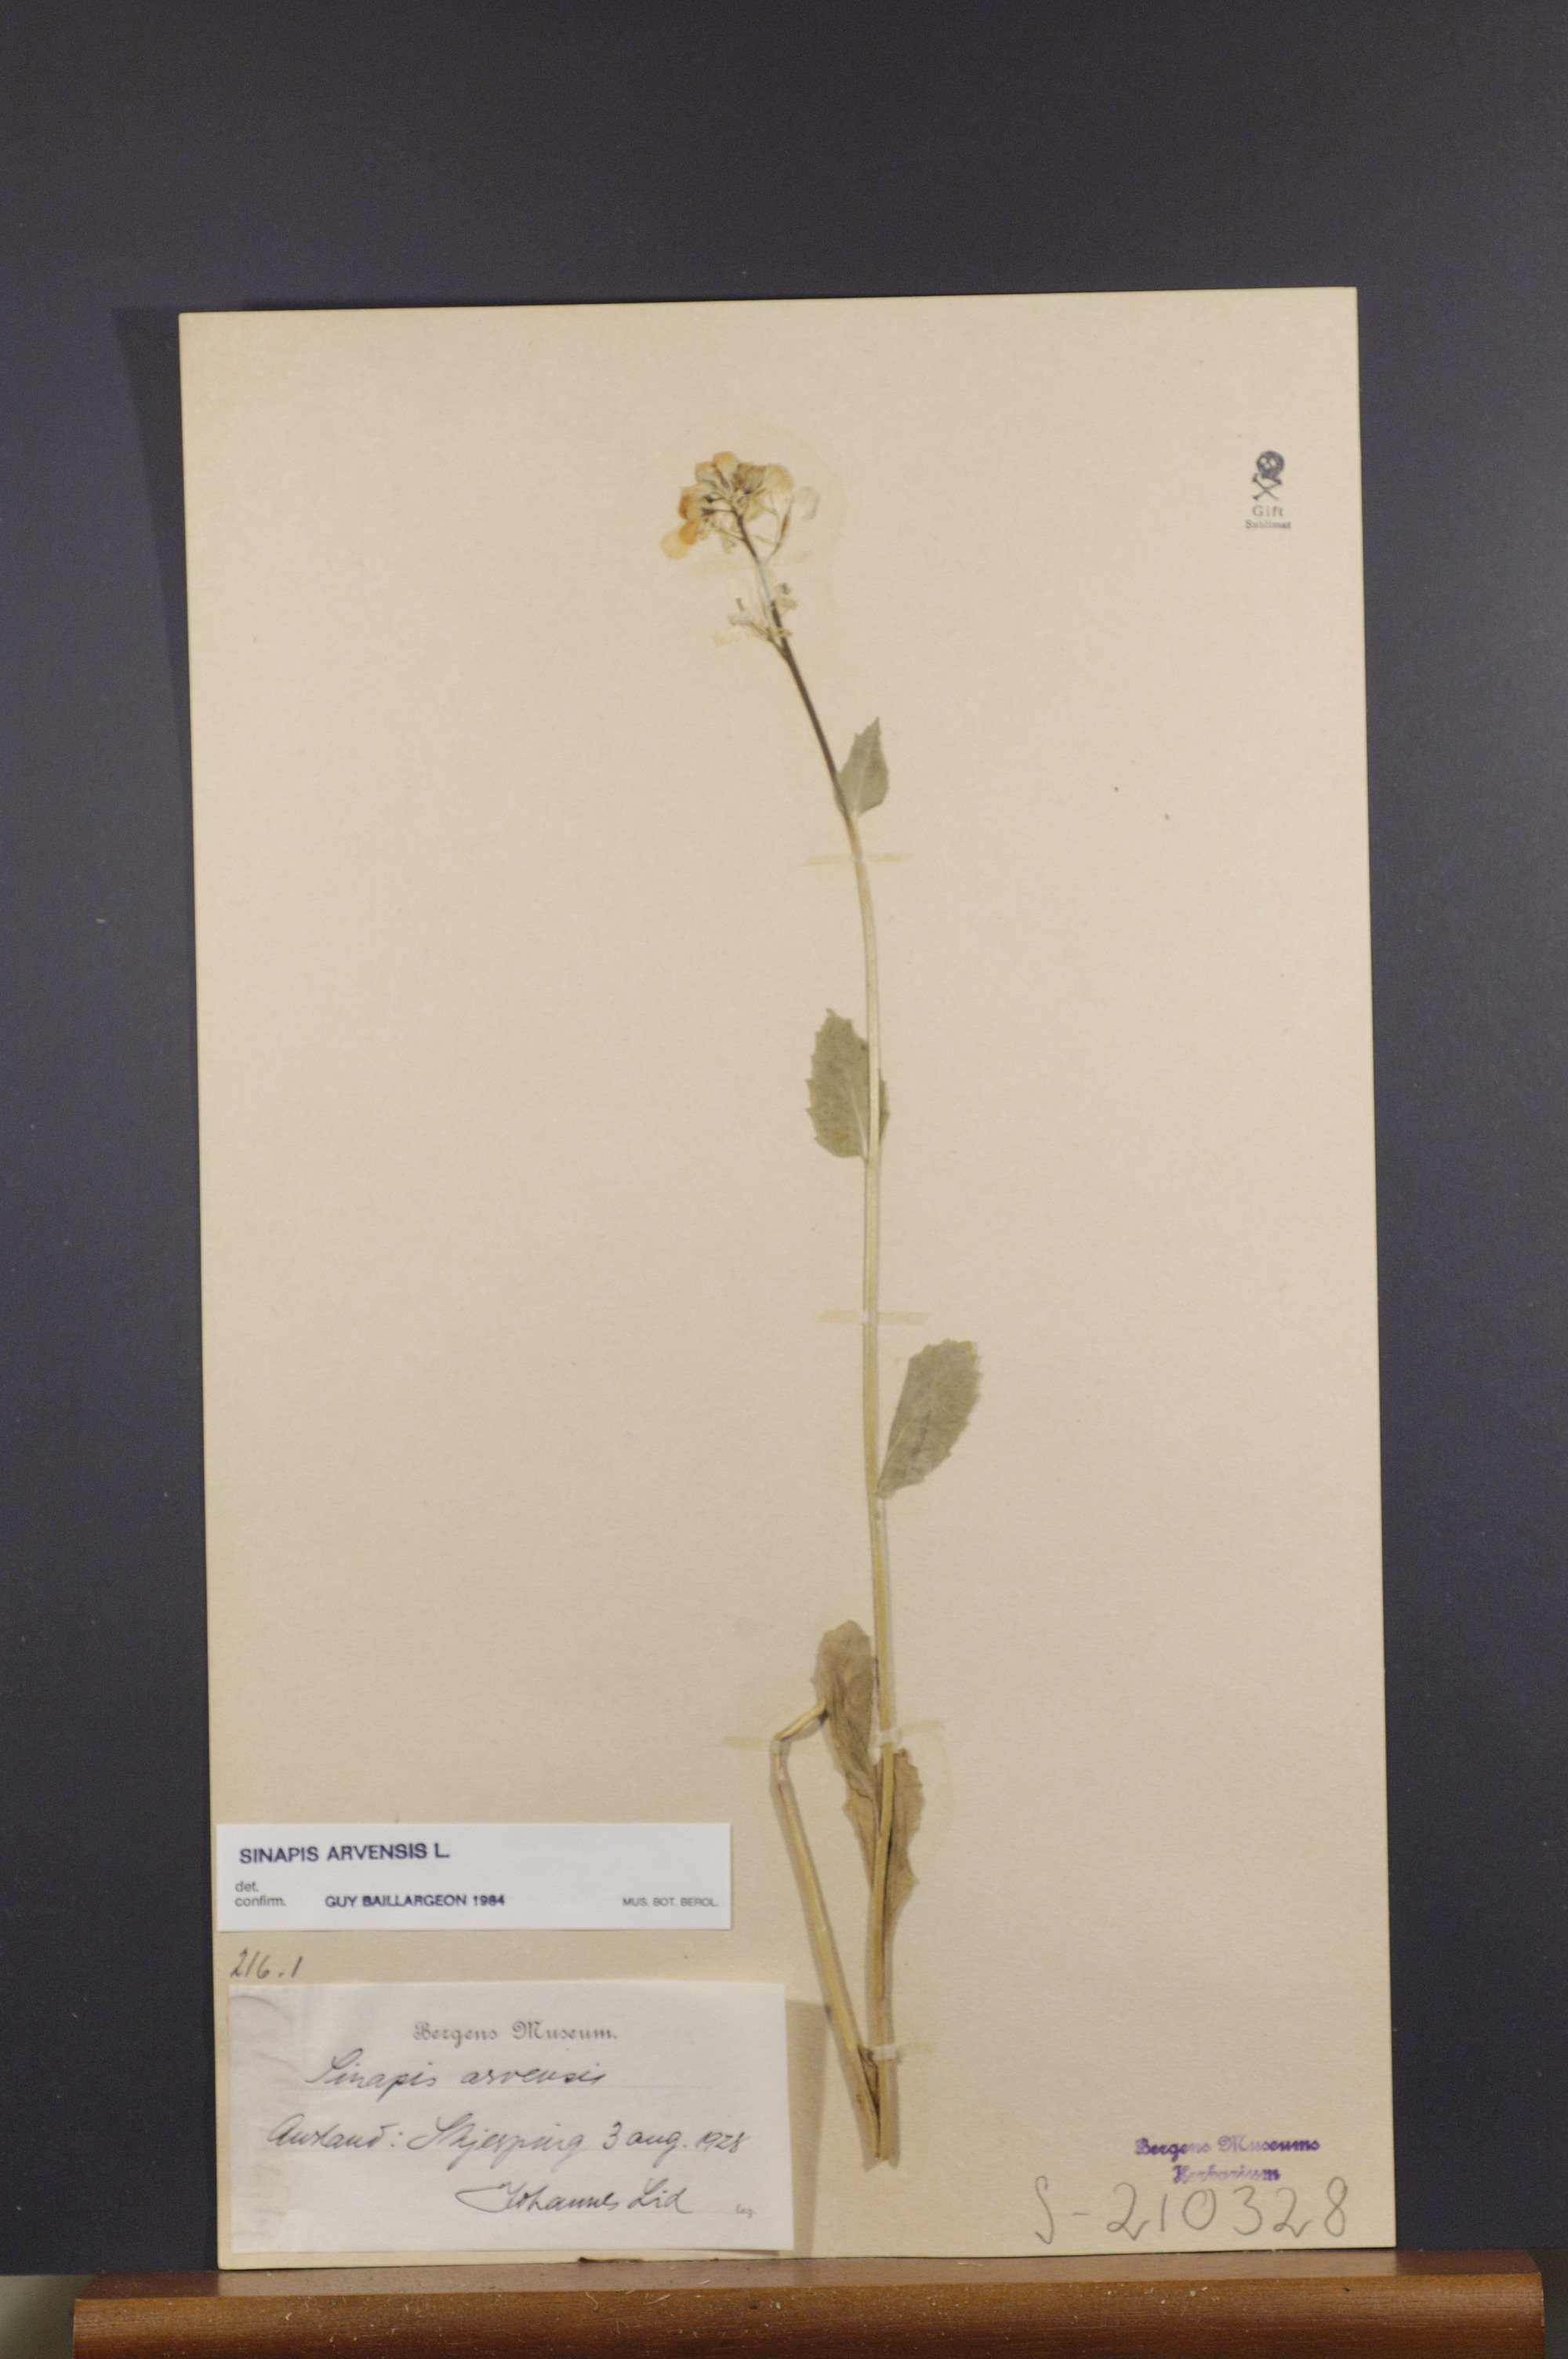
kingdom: Plantae
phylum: Tracheophyta
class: Magnoliopsida
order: Brassicales
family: Brassicaceae
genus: Sinapis
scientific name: Sinapis arvensis
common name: Charlock
